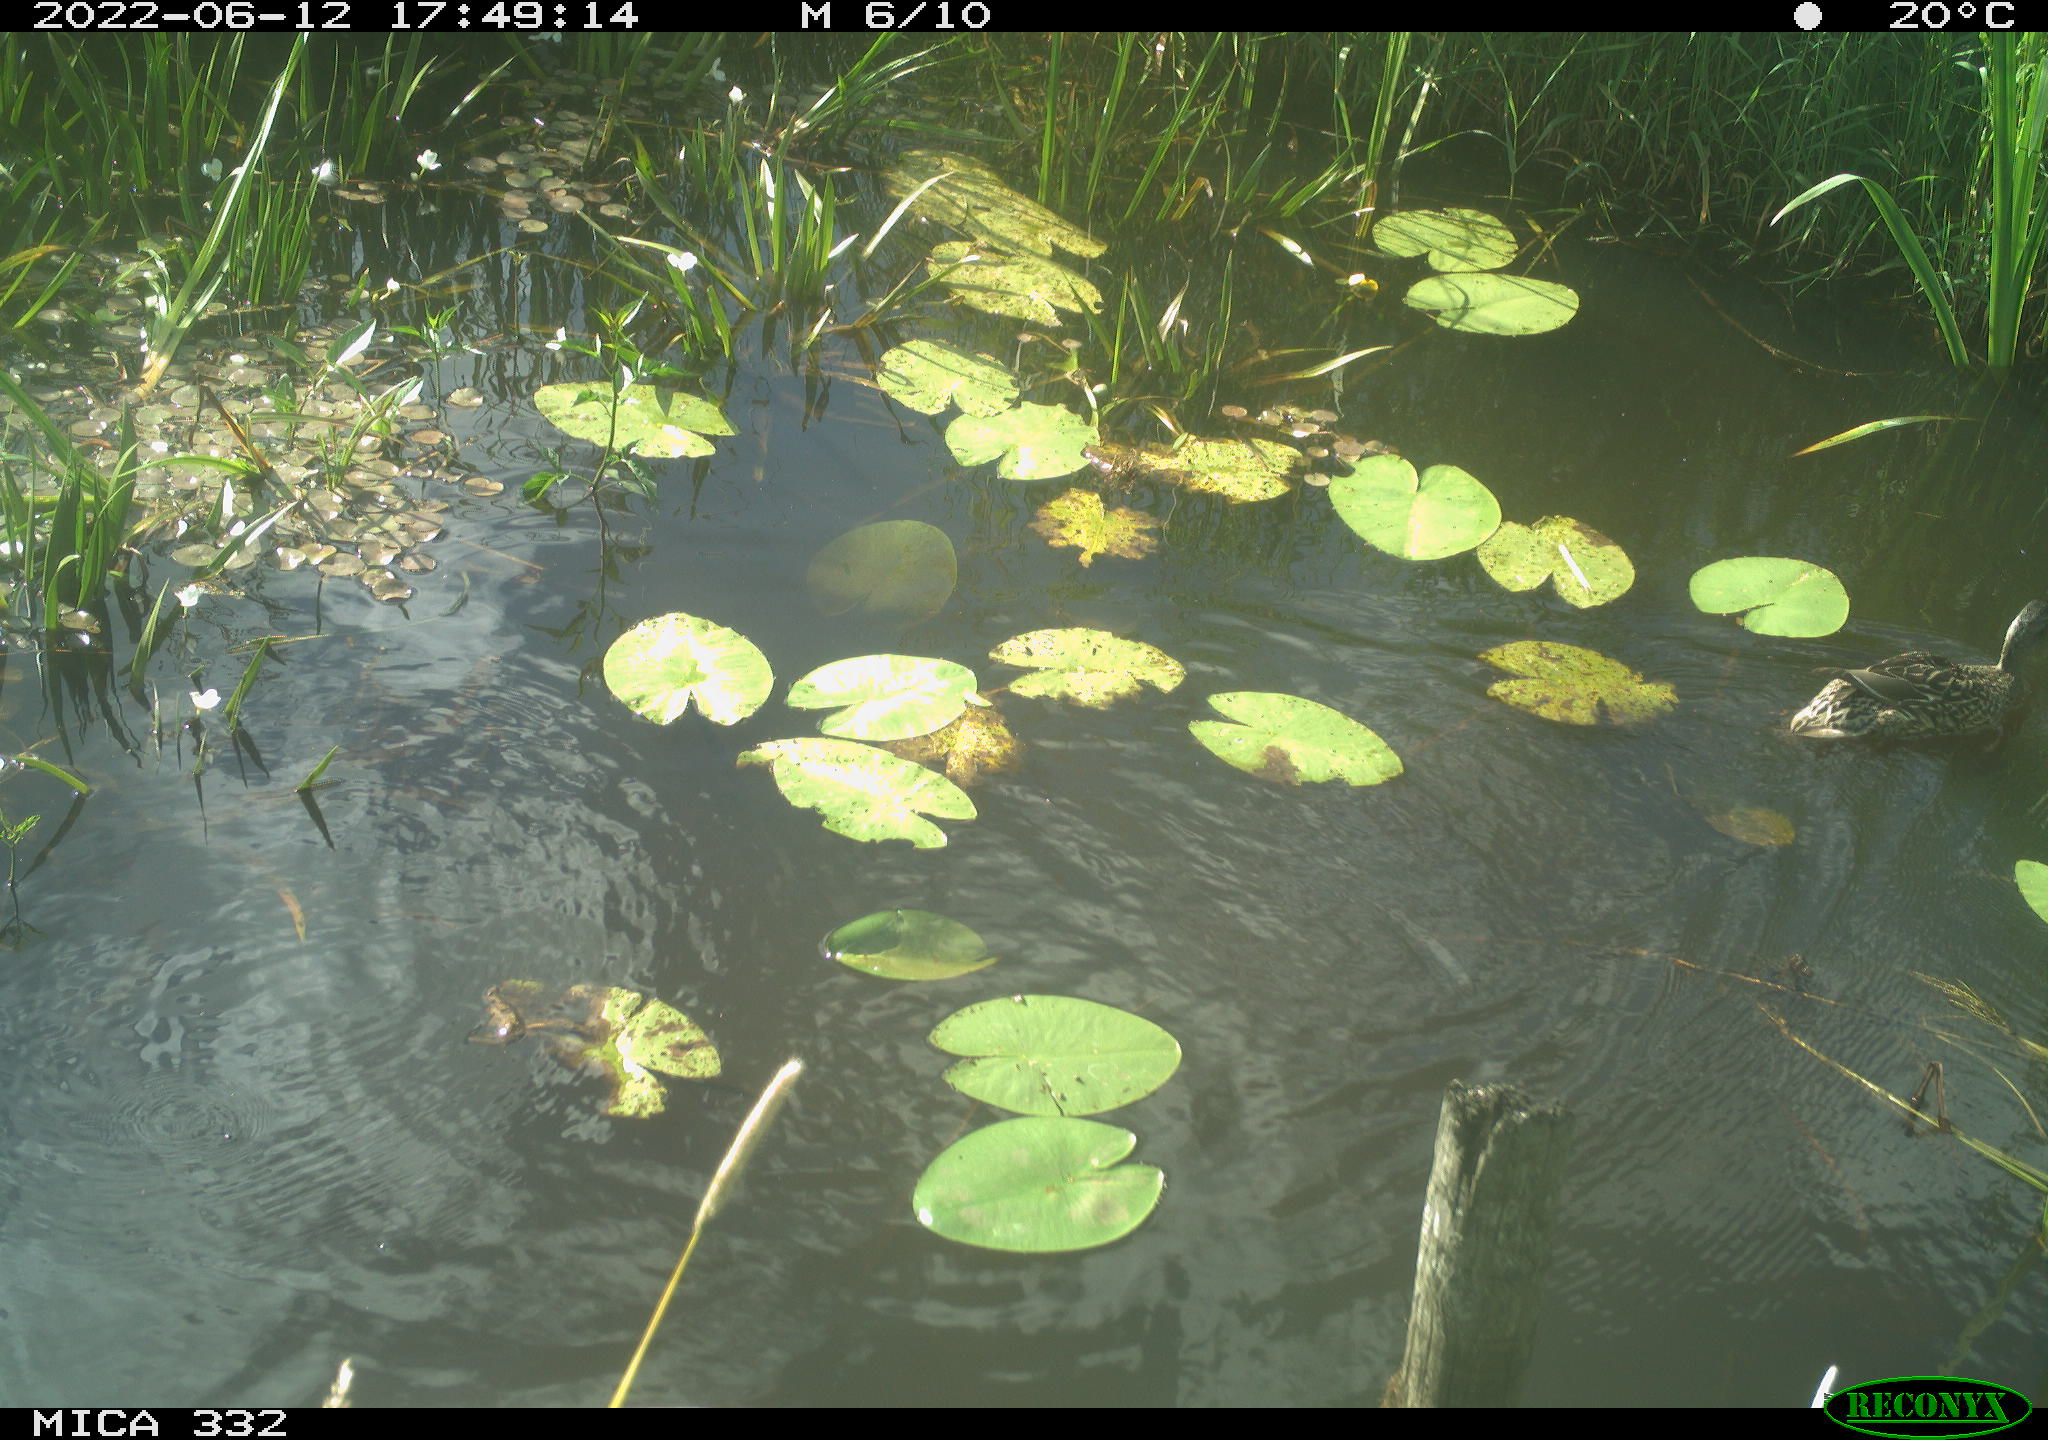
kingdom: Animalia
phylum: Chordata
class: Aves
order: Anseriformes
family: Anatidae
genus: Anas
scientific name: Anas platyrhynchos
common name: Mallard
